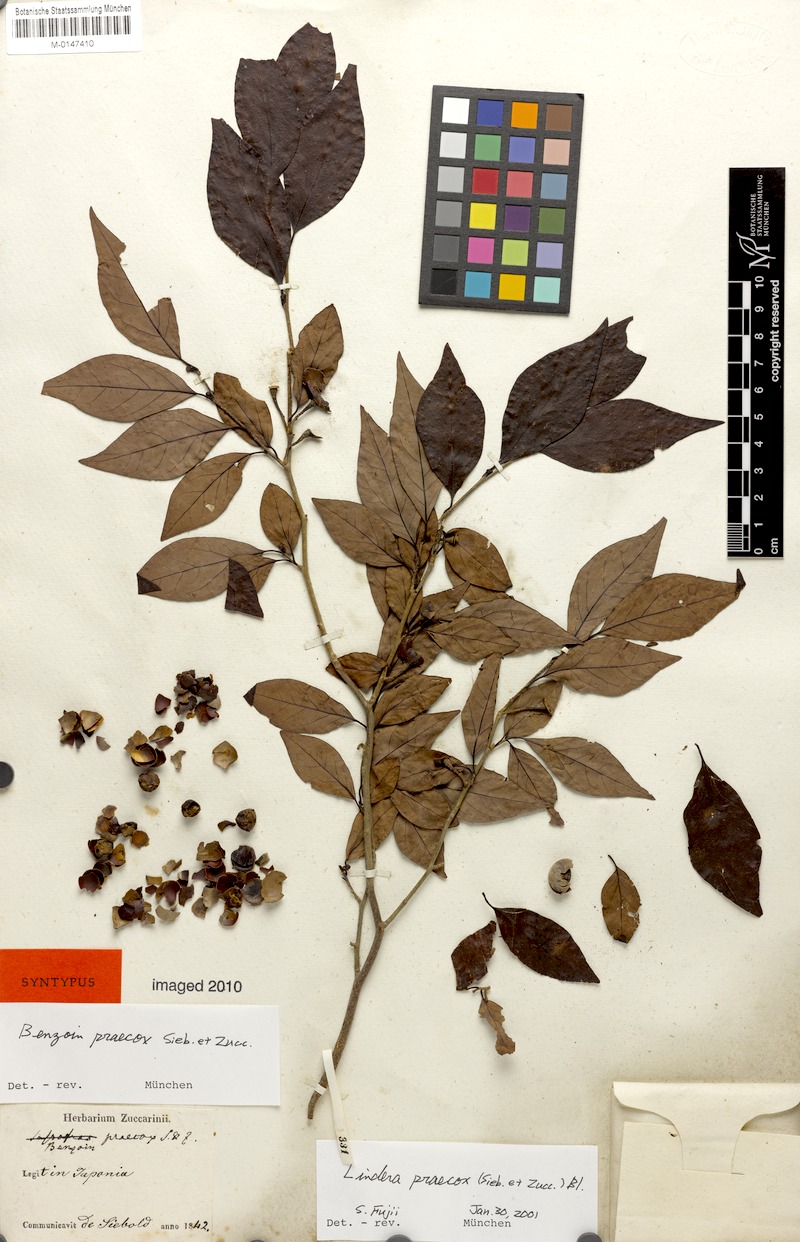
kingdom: Plantae
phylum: Tracheophyta
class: Magnoliopsida
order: Laurales
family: Lauraceae
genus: Lindera
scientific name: Lindera praecox
